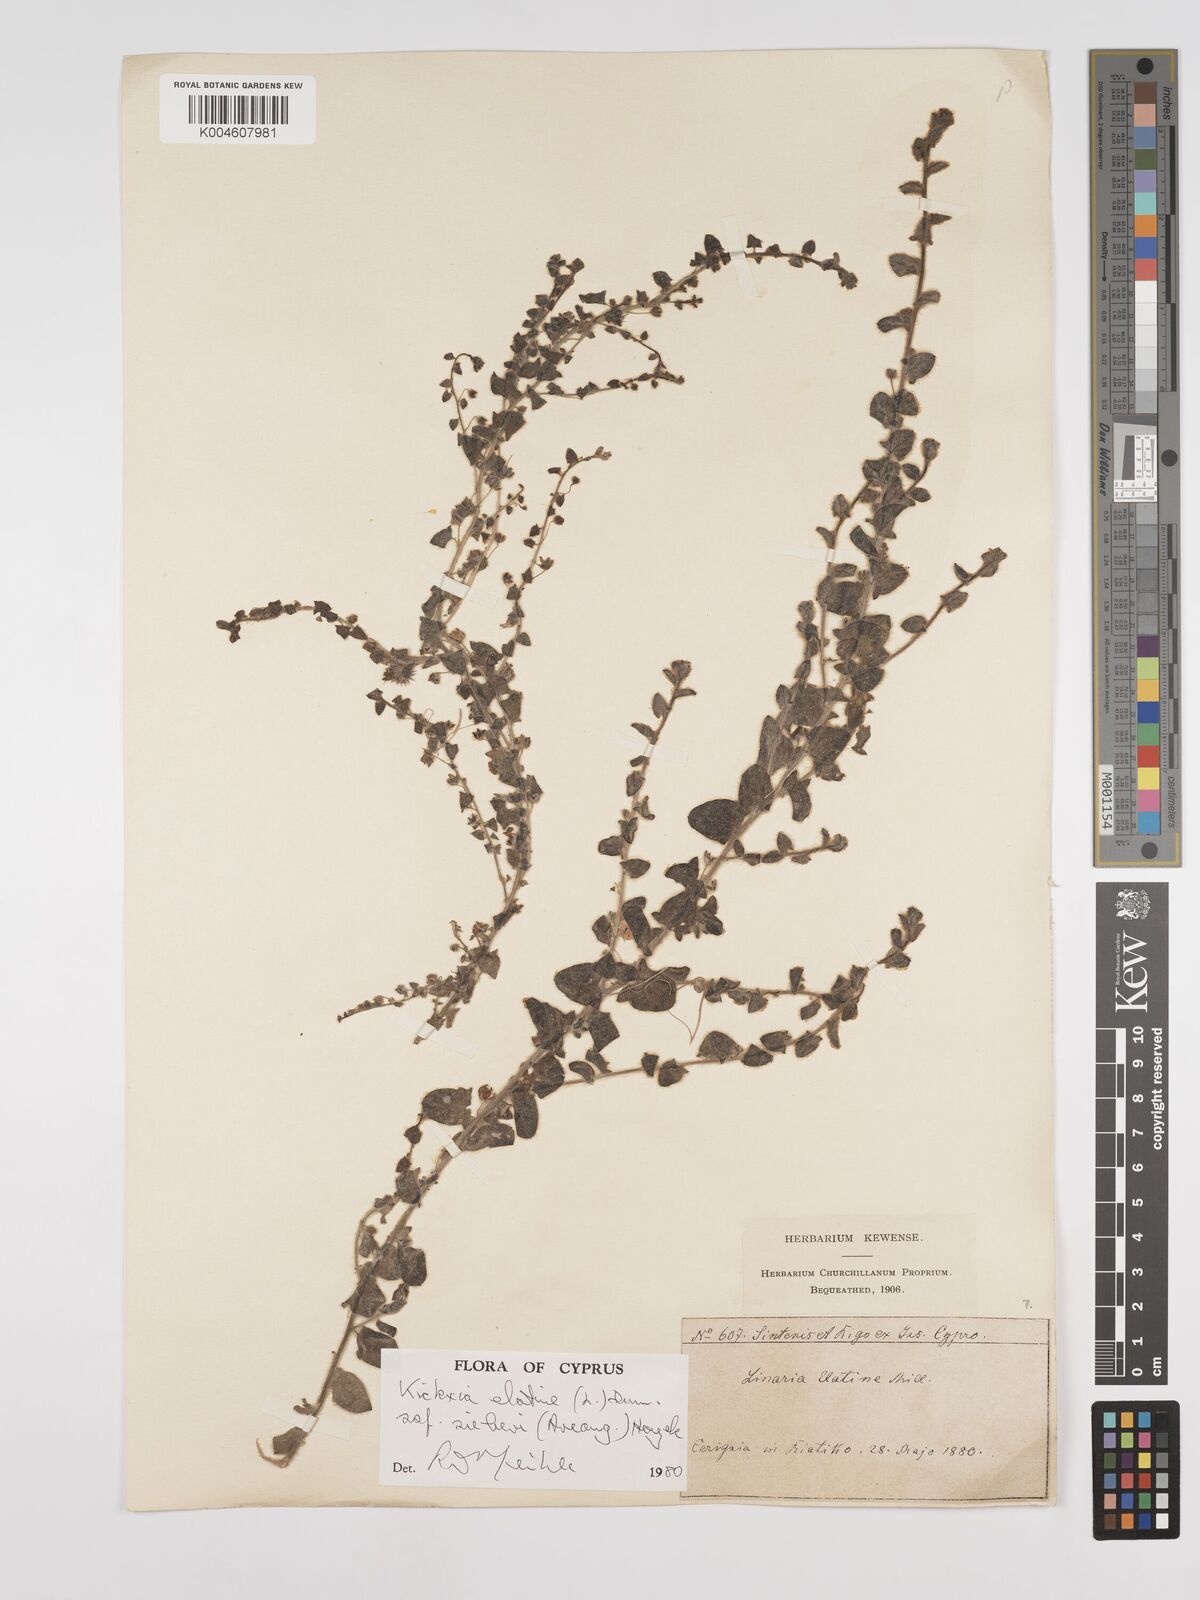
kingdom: Plantae
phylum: Tracheophyta
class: Magnoliopsida
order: Lamiales
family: Plantaginaceae
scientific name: Plantaginaceae
